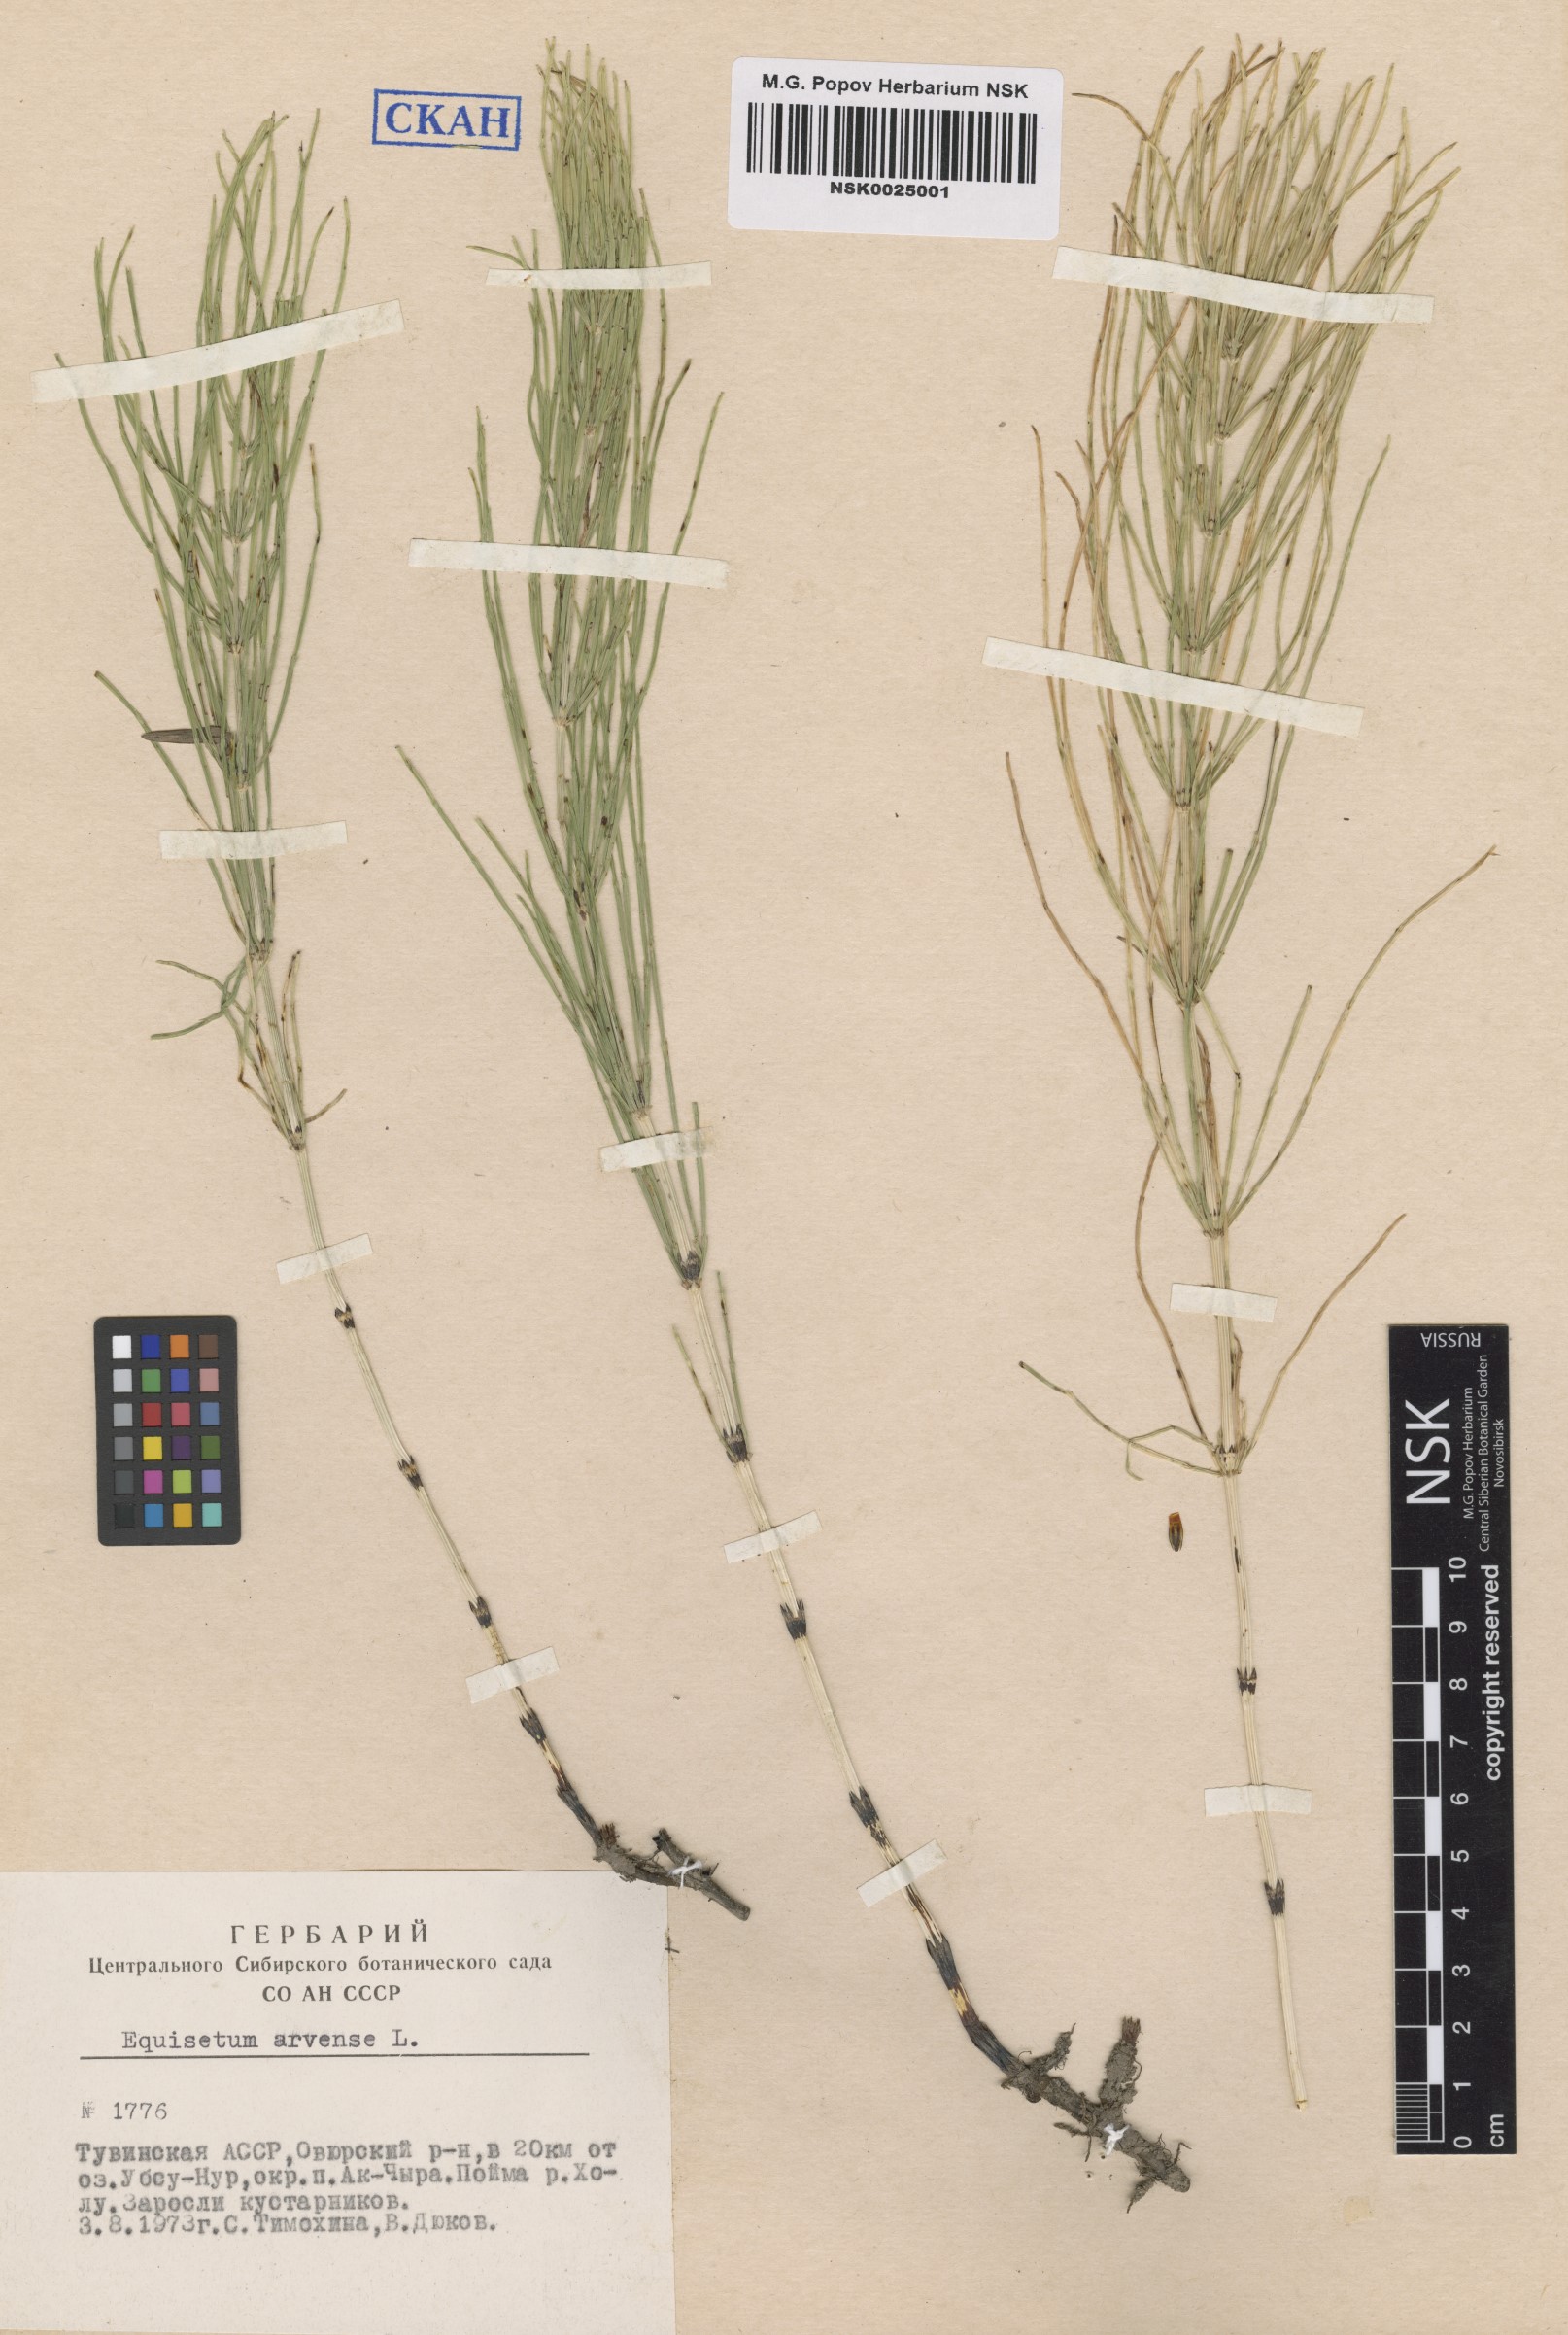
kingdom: Plantae
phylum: Tracheophyta
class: Polypodiopsida
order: Equisetales
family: Equisetaceae
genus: Equisetum
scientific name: Equisetum arvense
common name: Field horsetail
